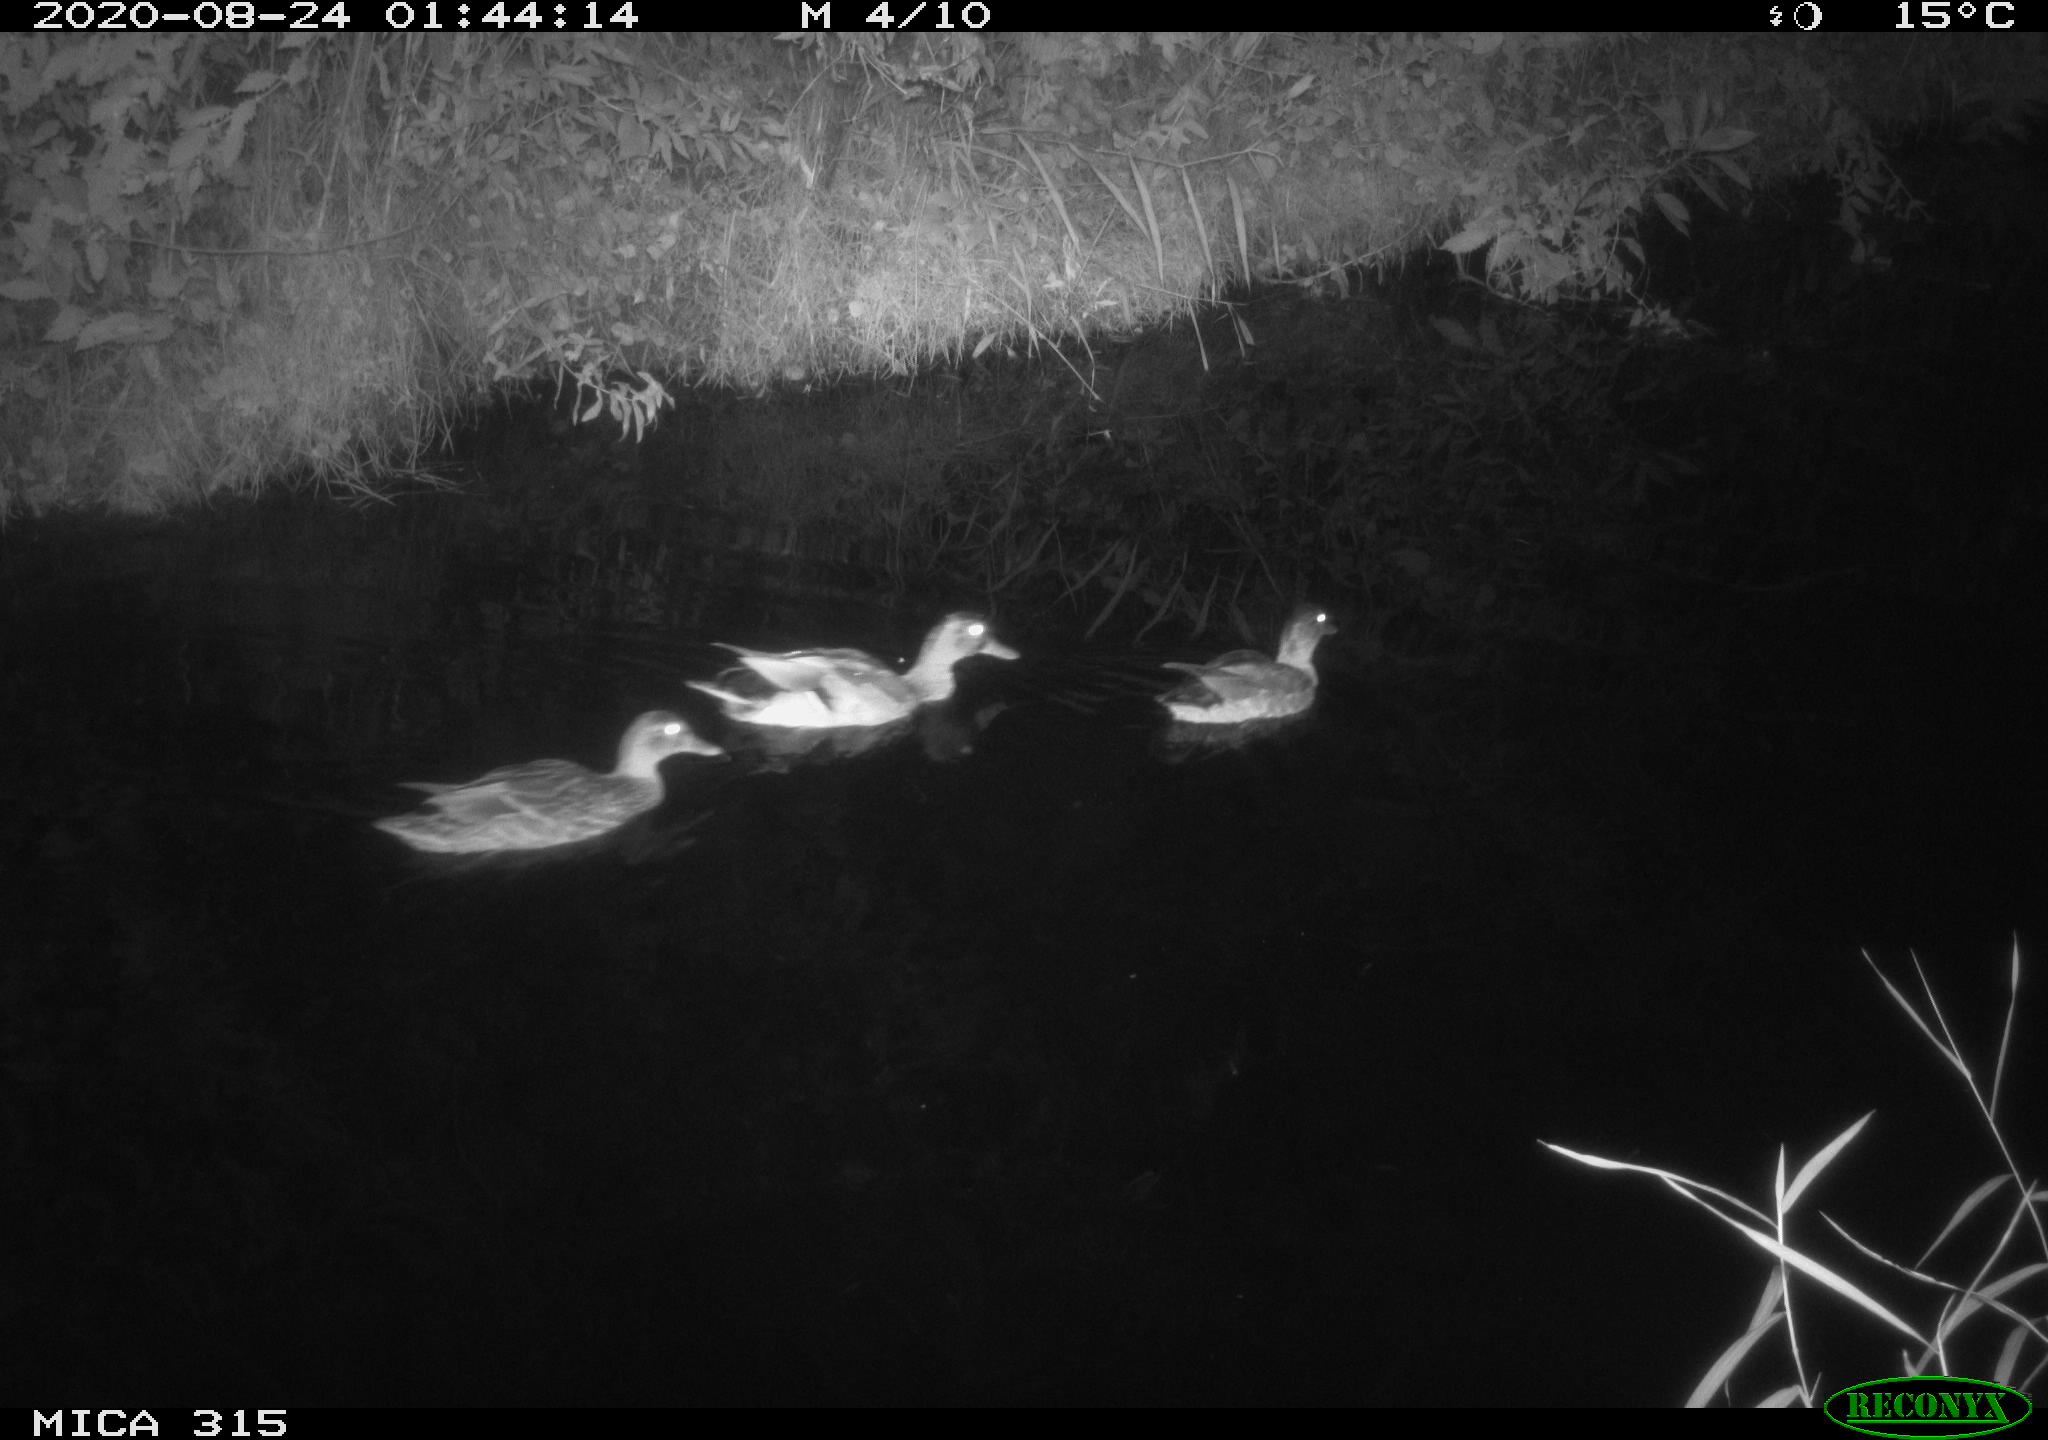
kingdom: Animalia
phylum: Chordata
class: Aves
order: Anseriformes
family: Anatidae
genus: Anas
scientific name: Anas platyrhynchos
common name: Mallard
